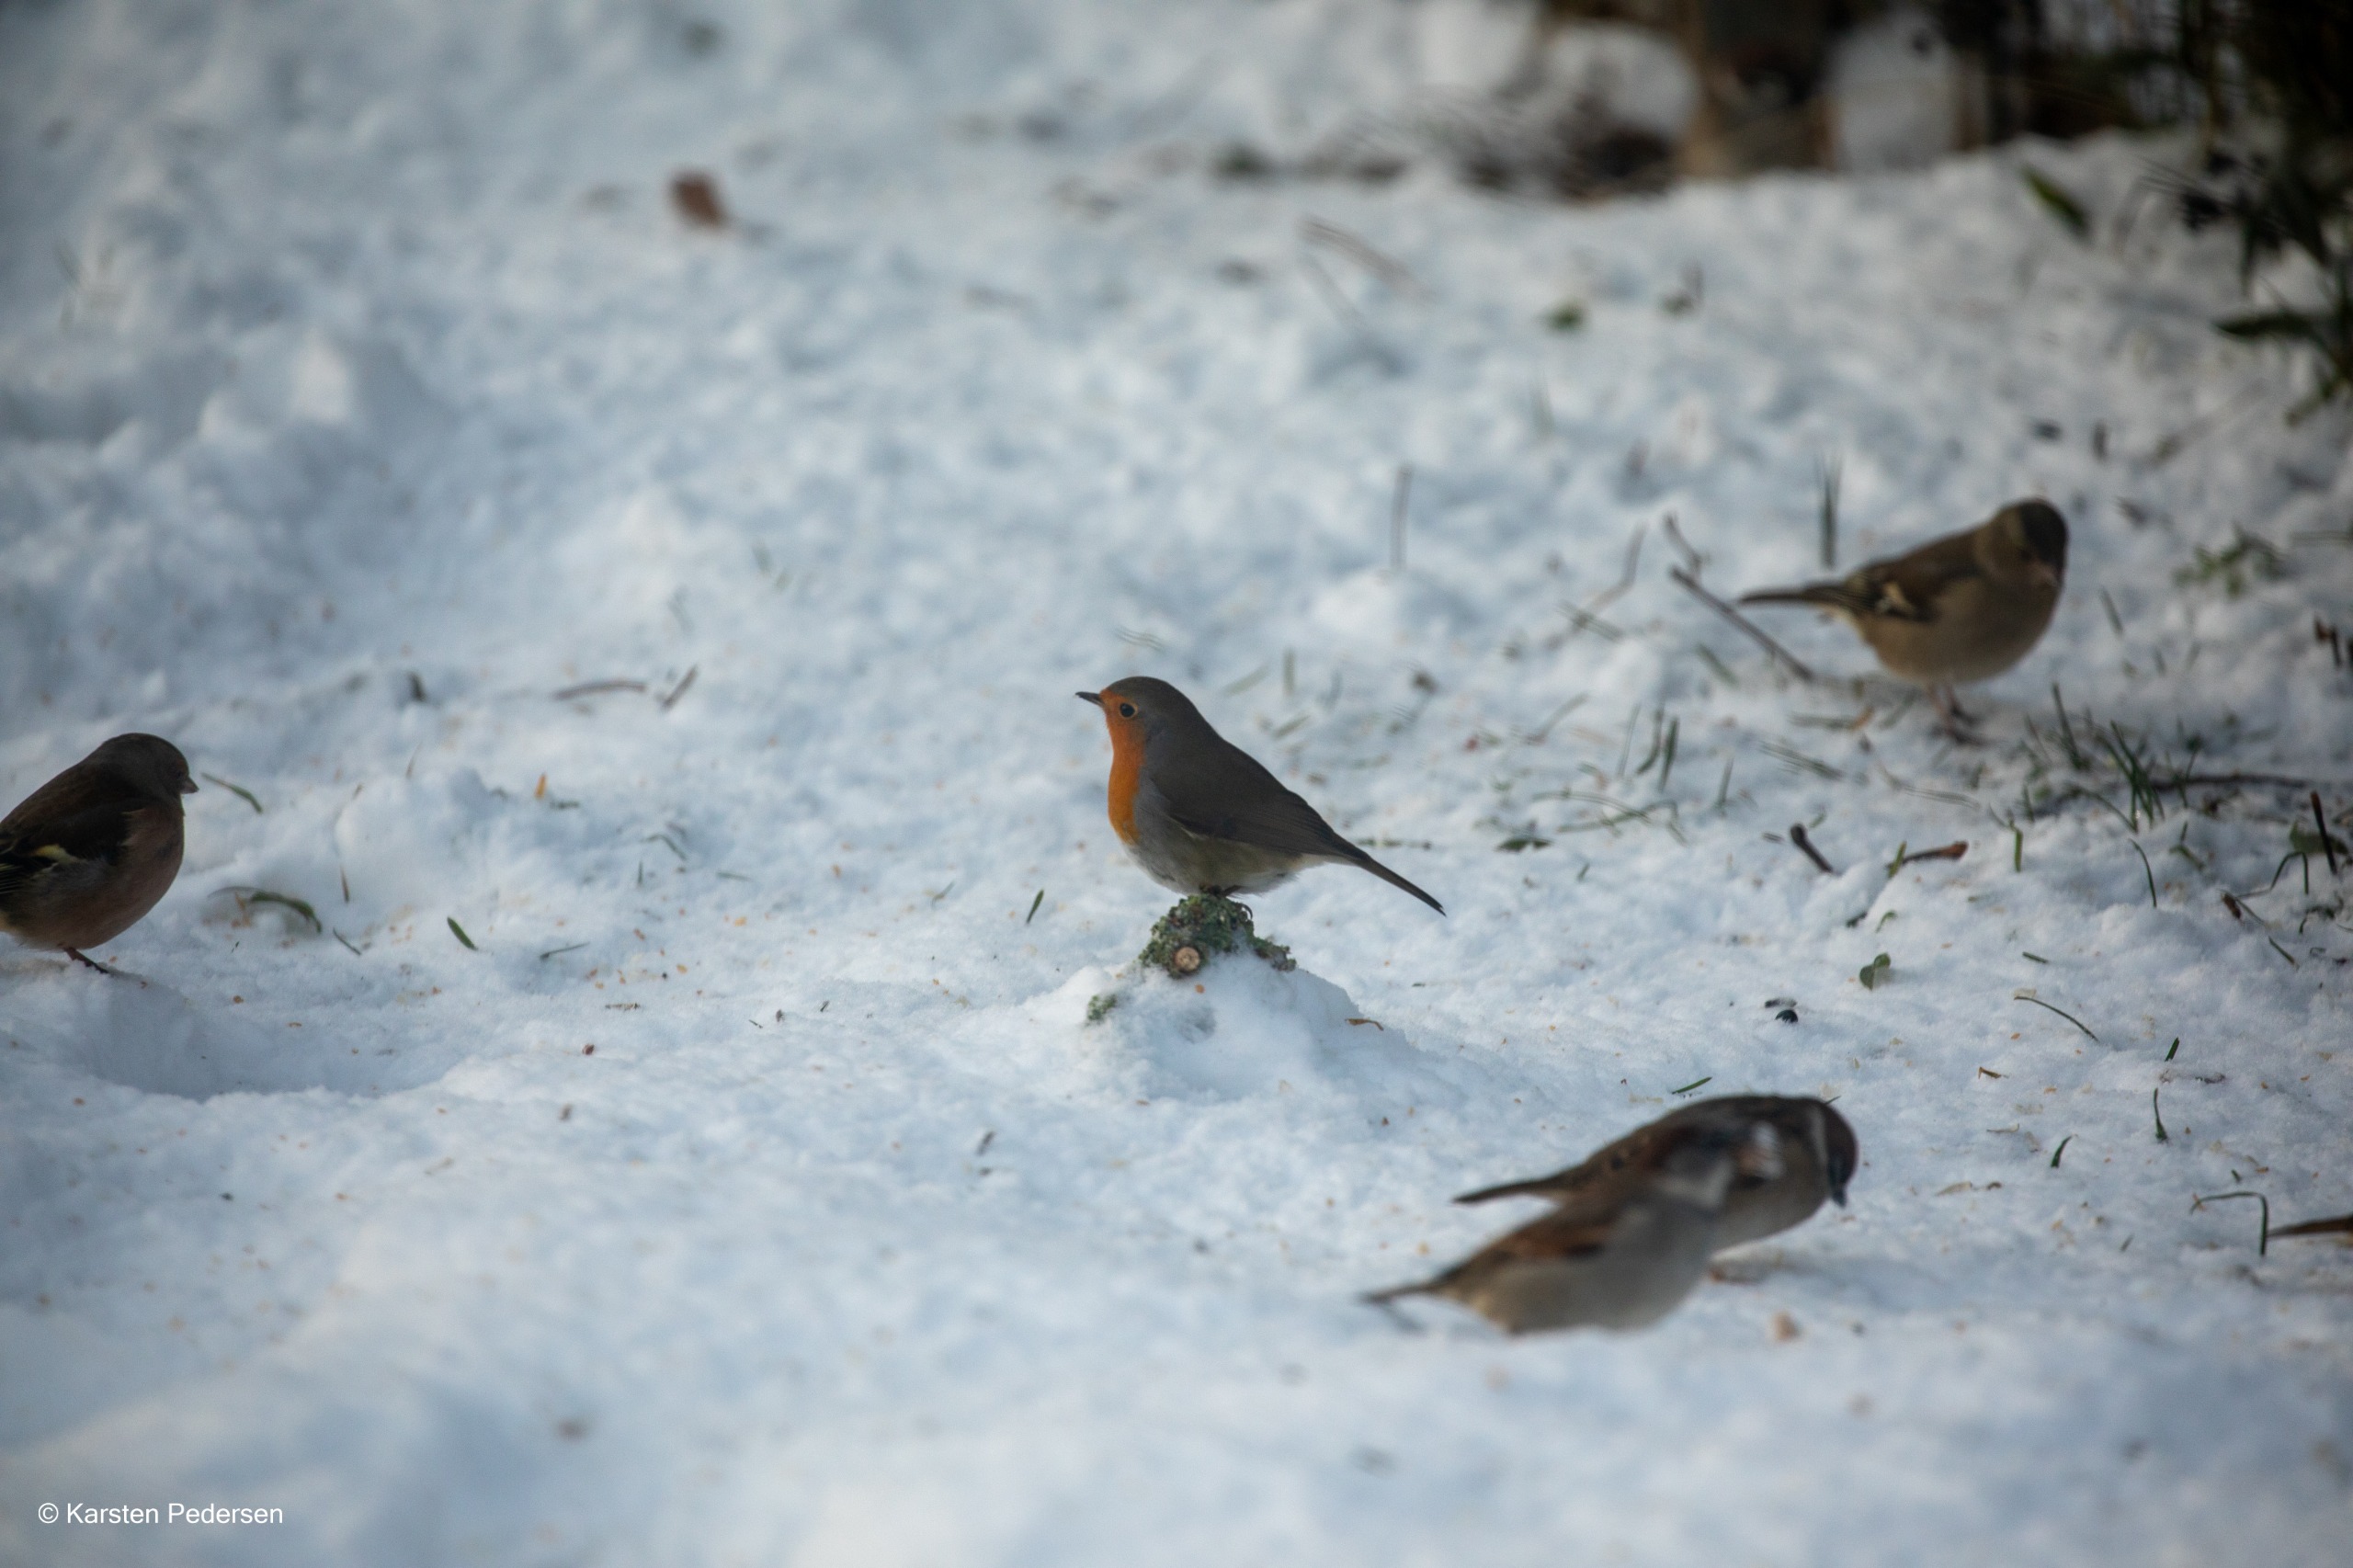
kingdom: Animalia
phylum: Chordata
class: Aves
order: Passeriformes
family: Muscicapidae
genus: Erithacus
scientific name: Erithacus rubecula
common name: Rødhals/rødkælk
